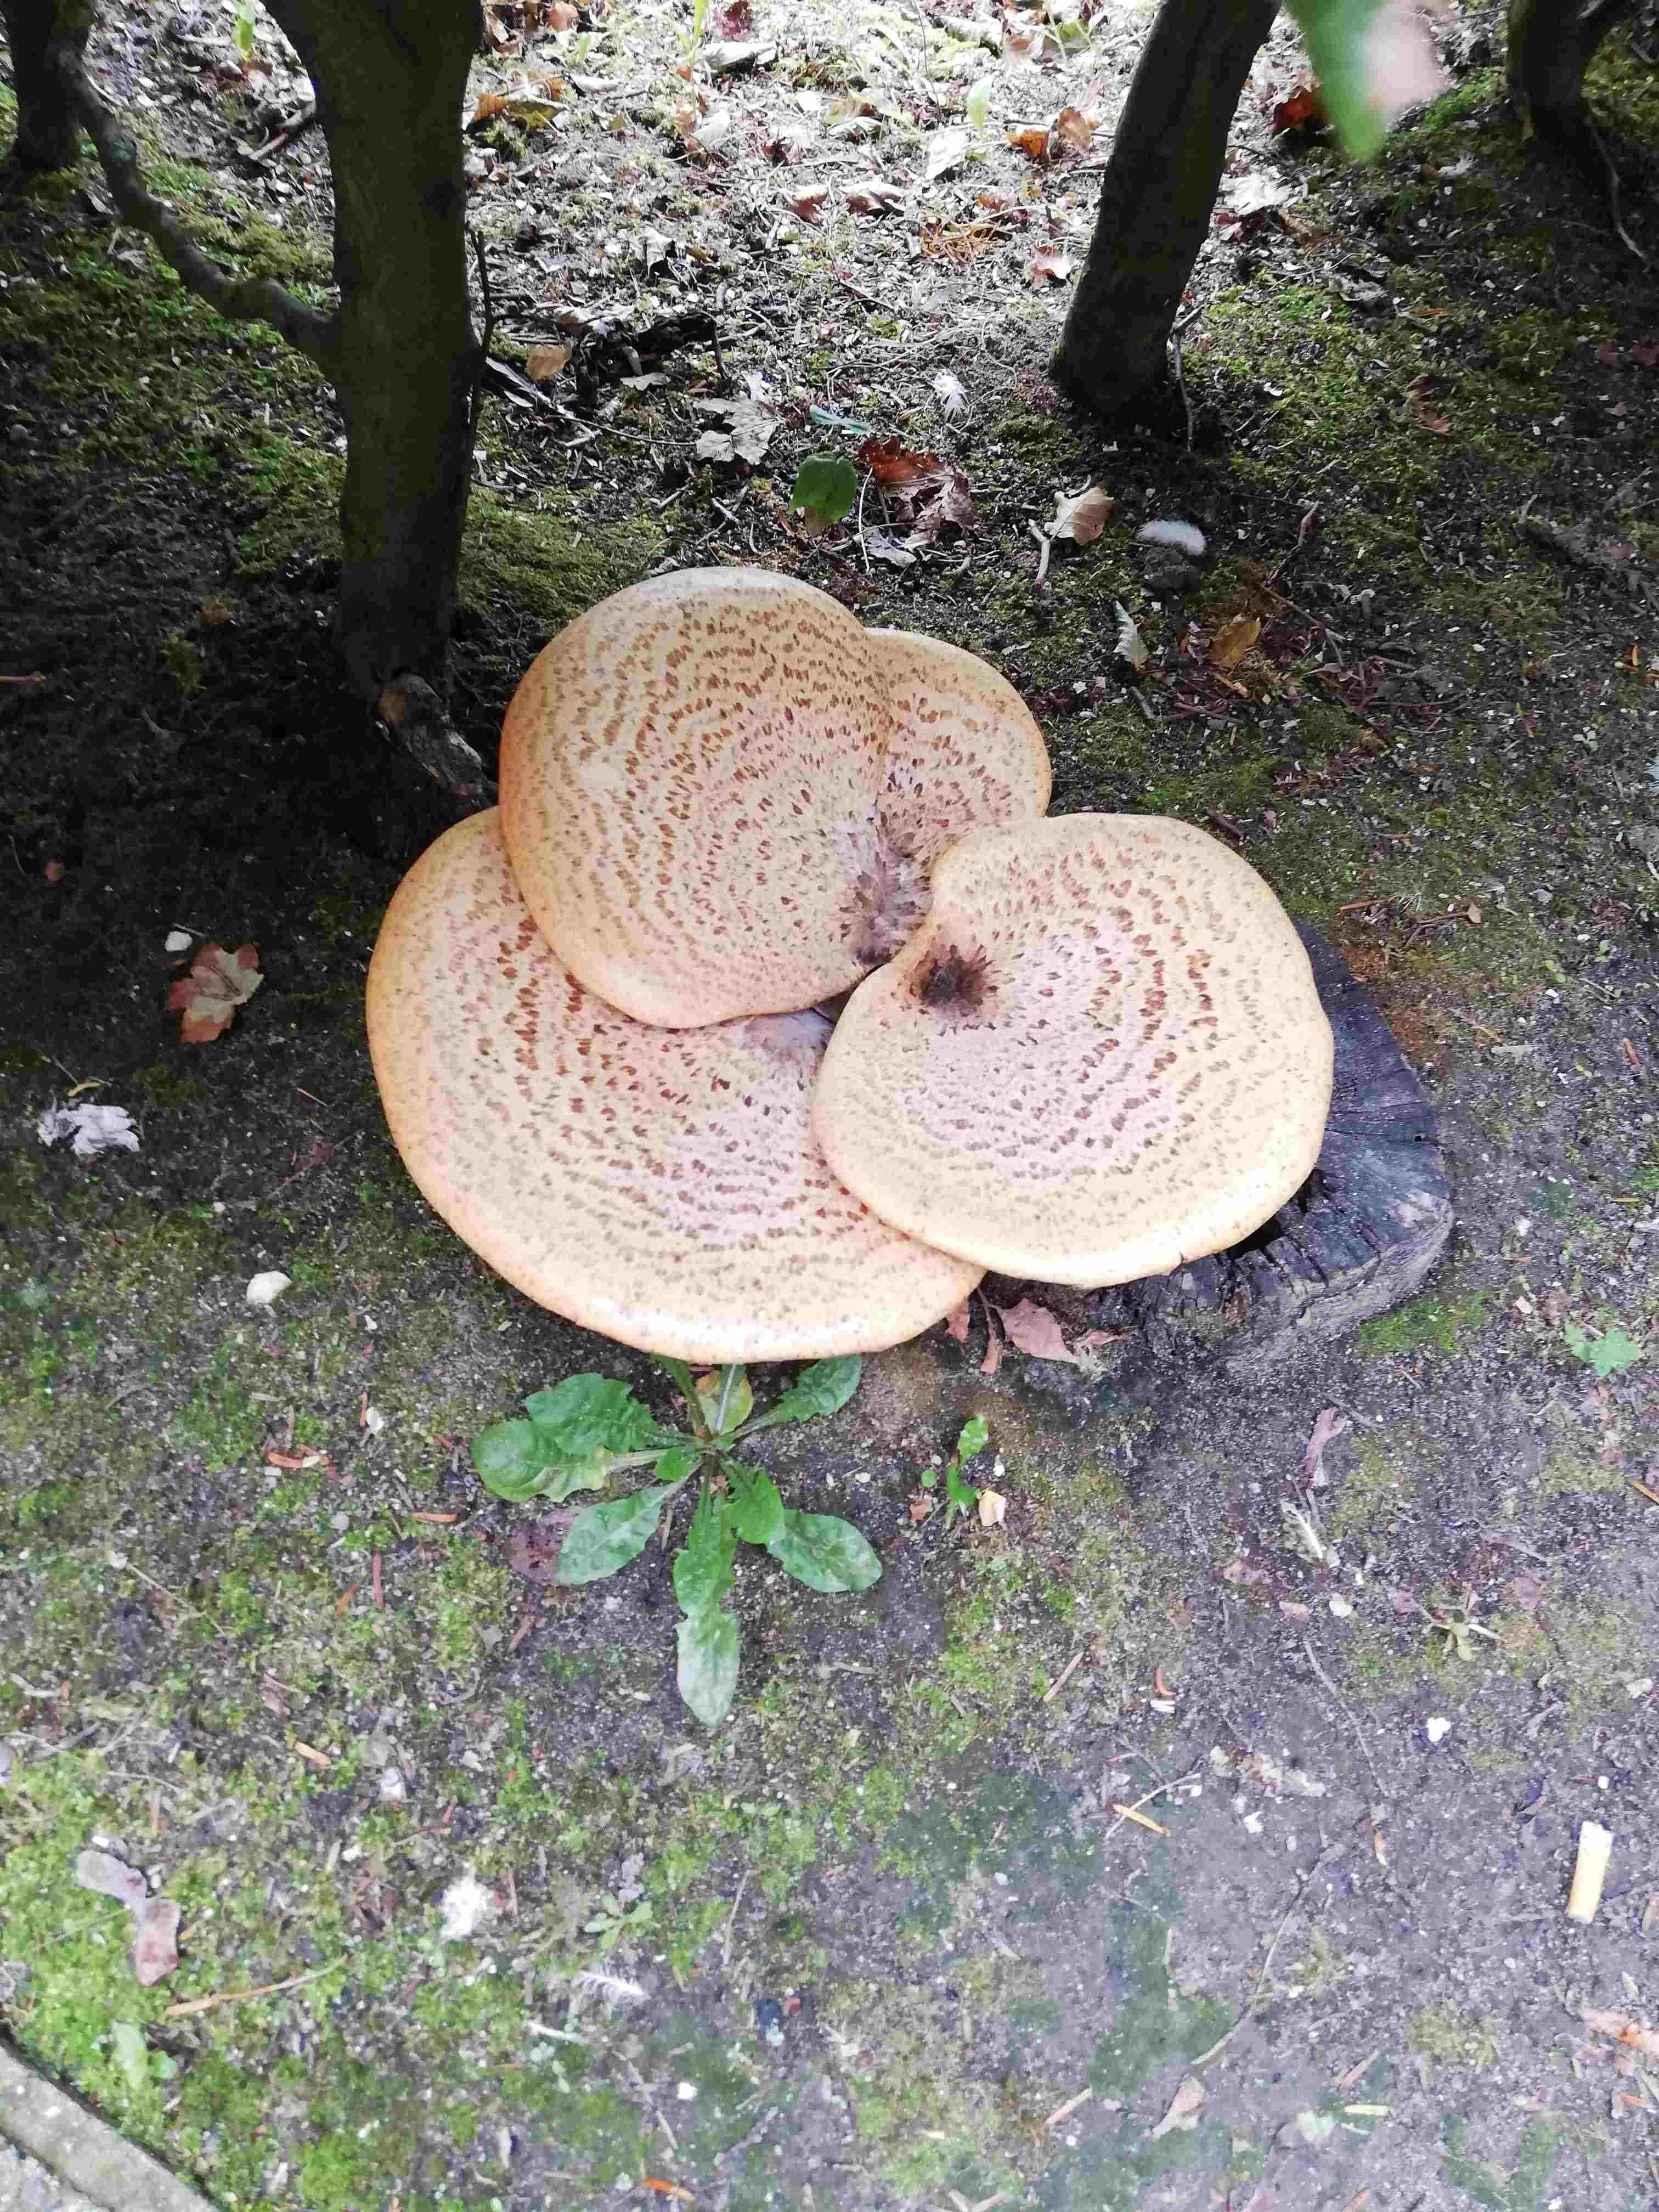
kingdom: Fungi
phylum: Basidiomycota
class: Agaricomycetes
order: Polyporales
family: Polyporaceae
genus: Cerioporus
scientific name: Cerioporus squamosus
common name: skællet stilkporesvamp
